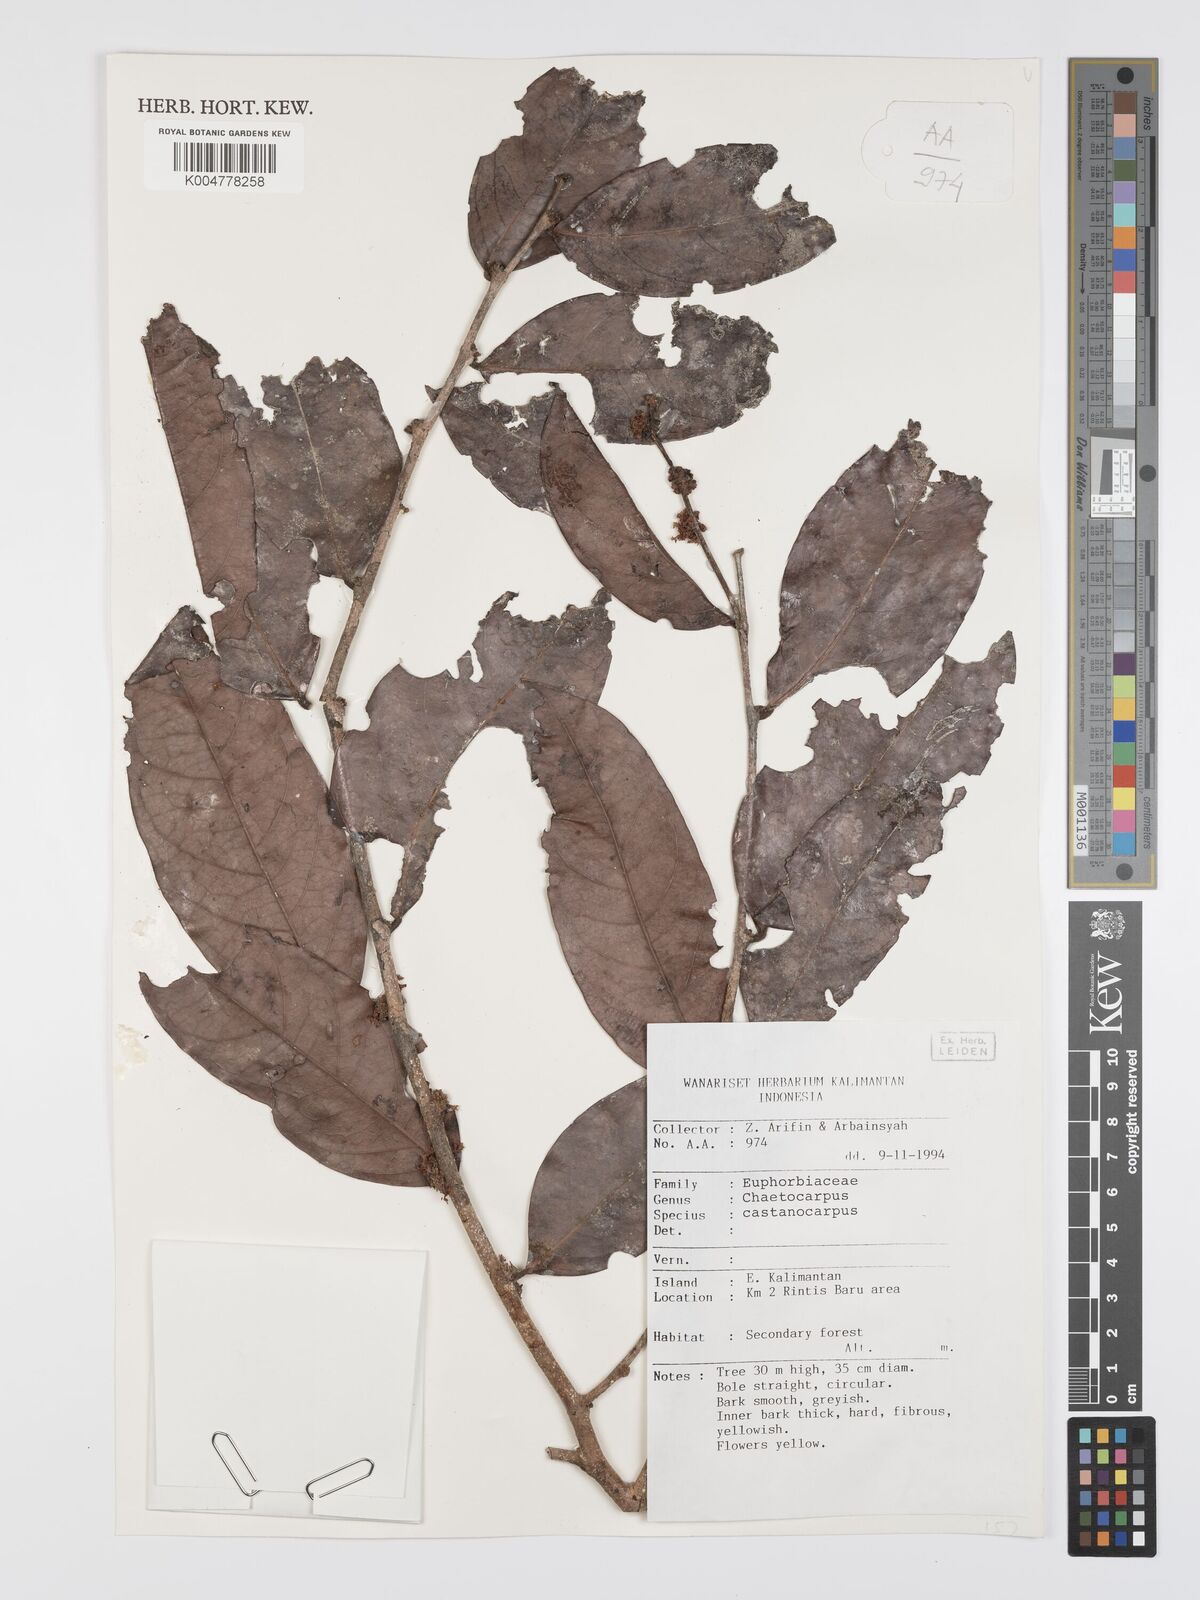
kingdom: Plantae
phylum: Tracheophyta
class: Magnoliopsida
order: Malpighiales
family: Peraceae
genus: Chaetocarpus
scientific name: Chaetocarpus castanocarpus
